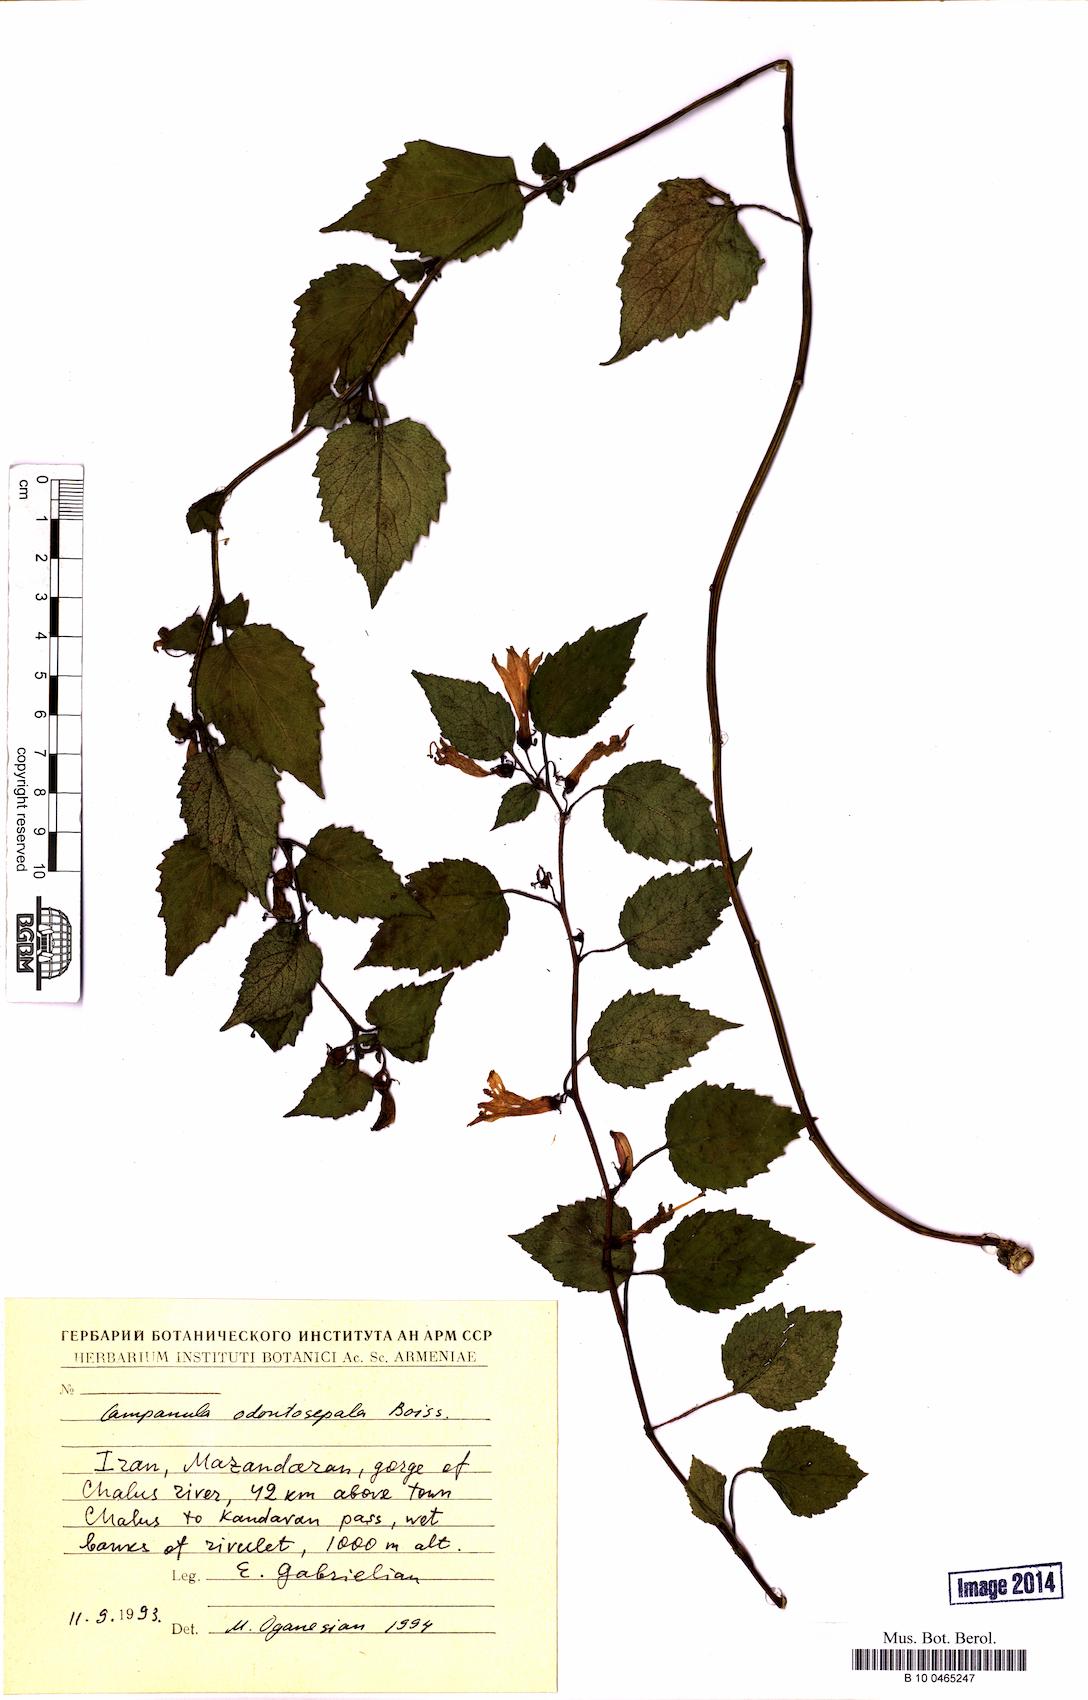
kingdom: Plantae
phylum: Tracheophyta
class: Magnoliopsida
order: Asterales
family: Campanulaceae
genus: Campanula
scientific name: Campanula odontosepala
